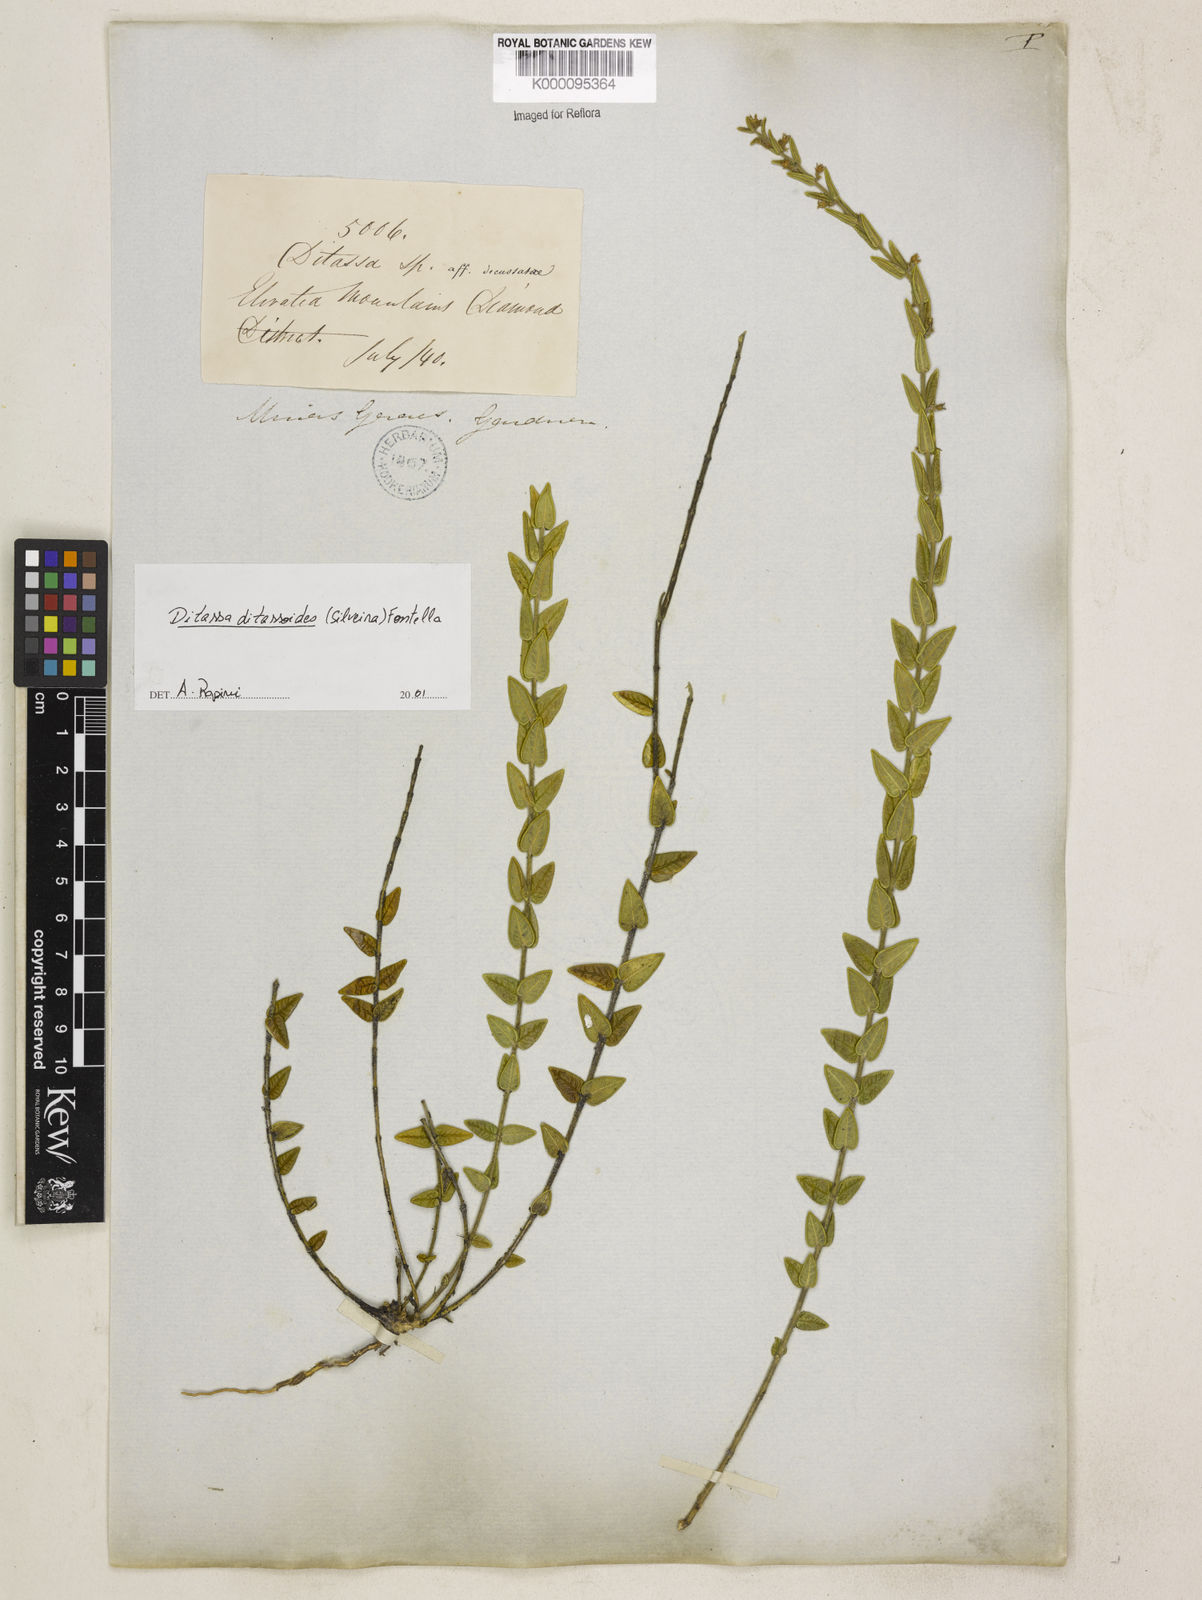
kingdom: Plantae
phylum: Tracheophyta
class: Magnoliopsida
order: Gentianales
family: Apocynaceae
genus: Minaria
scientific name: Minaria ditassoides
